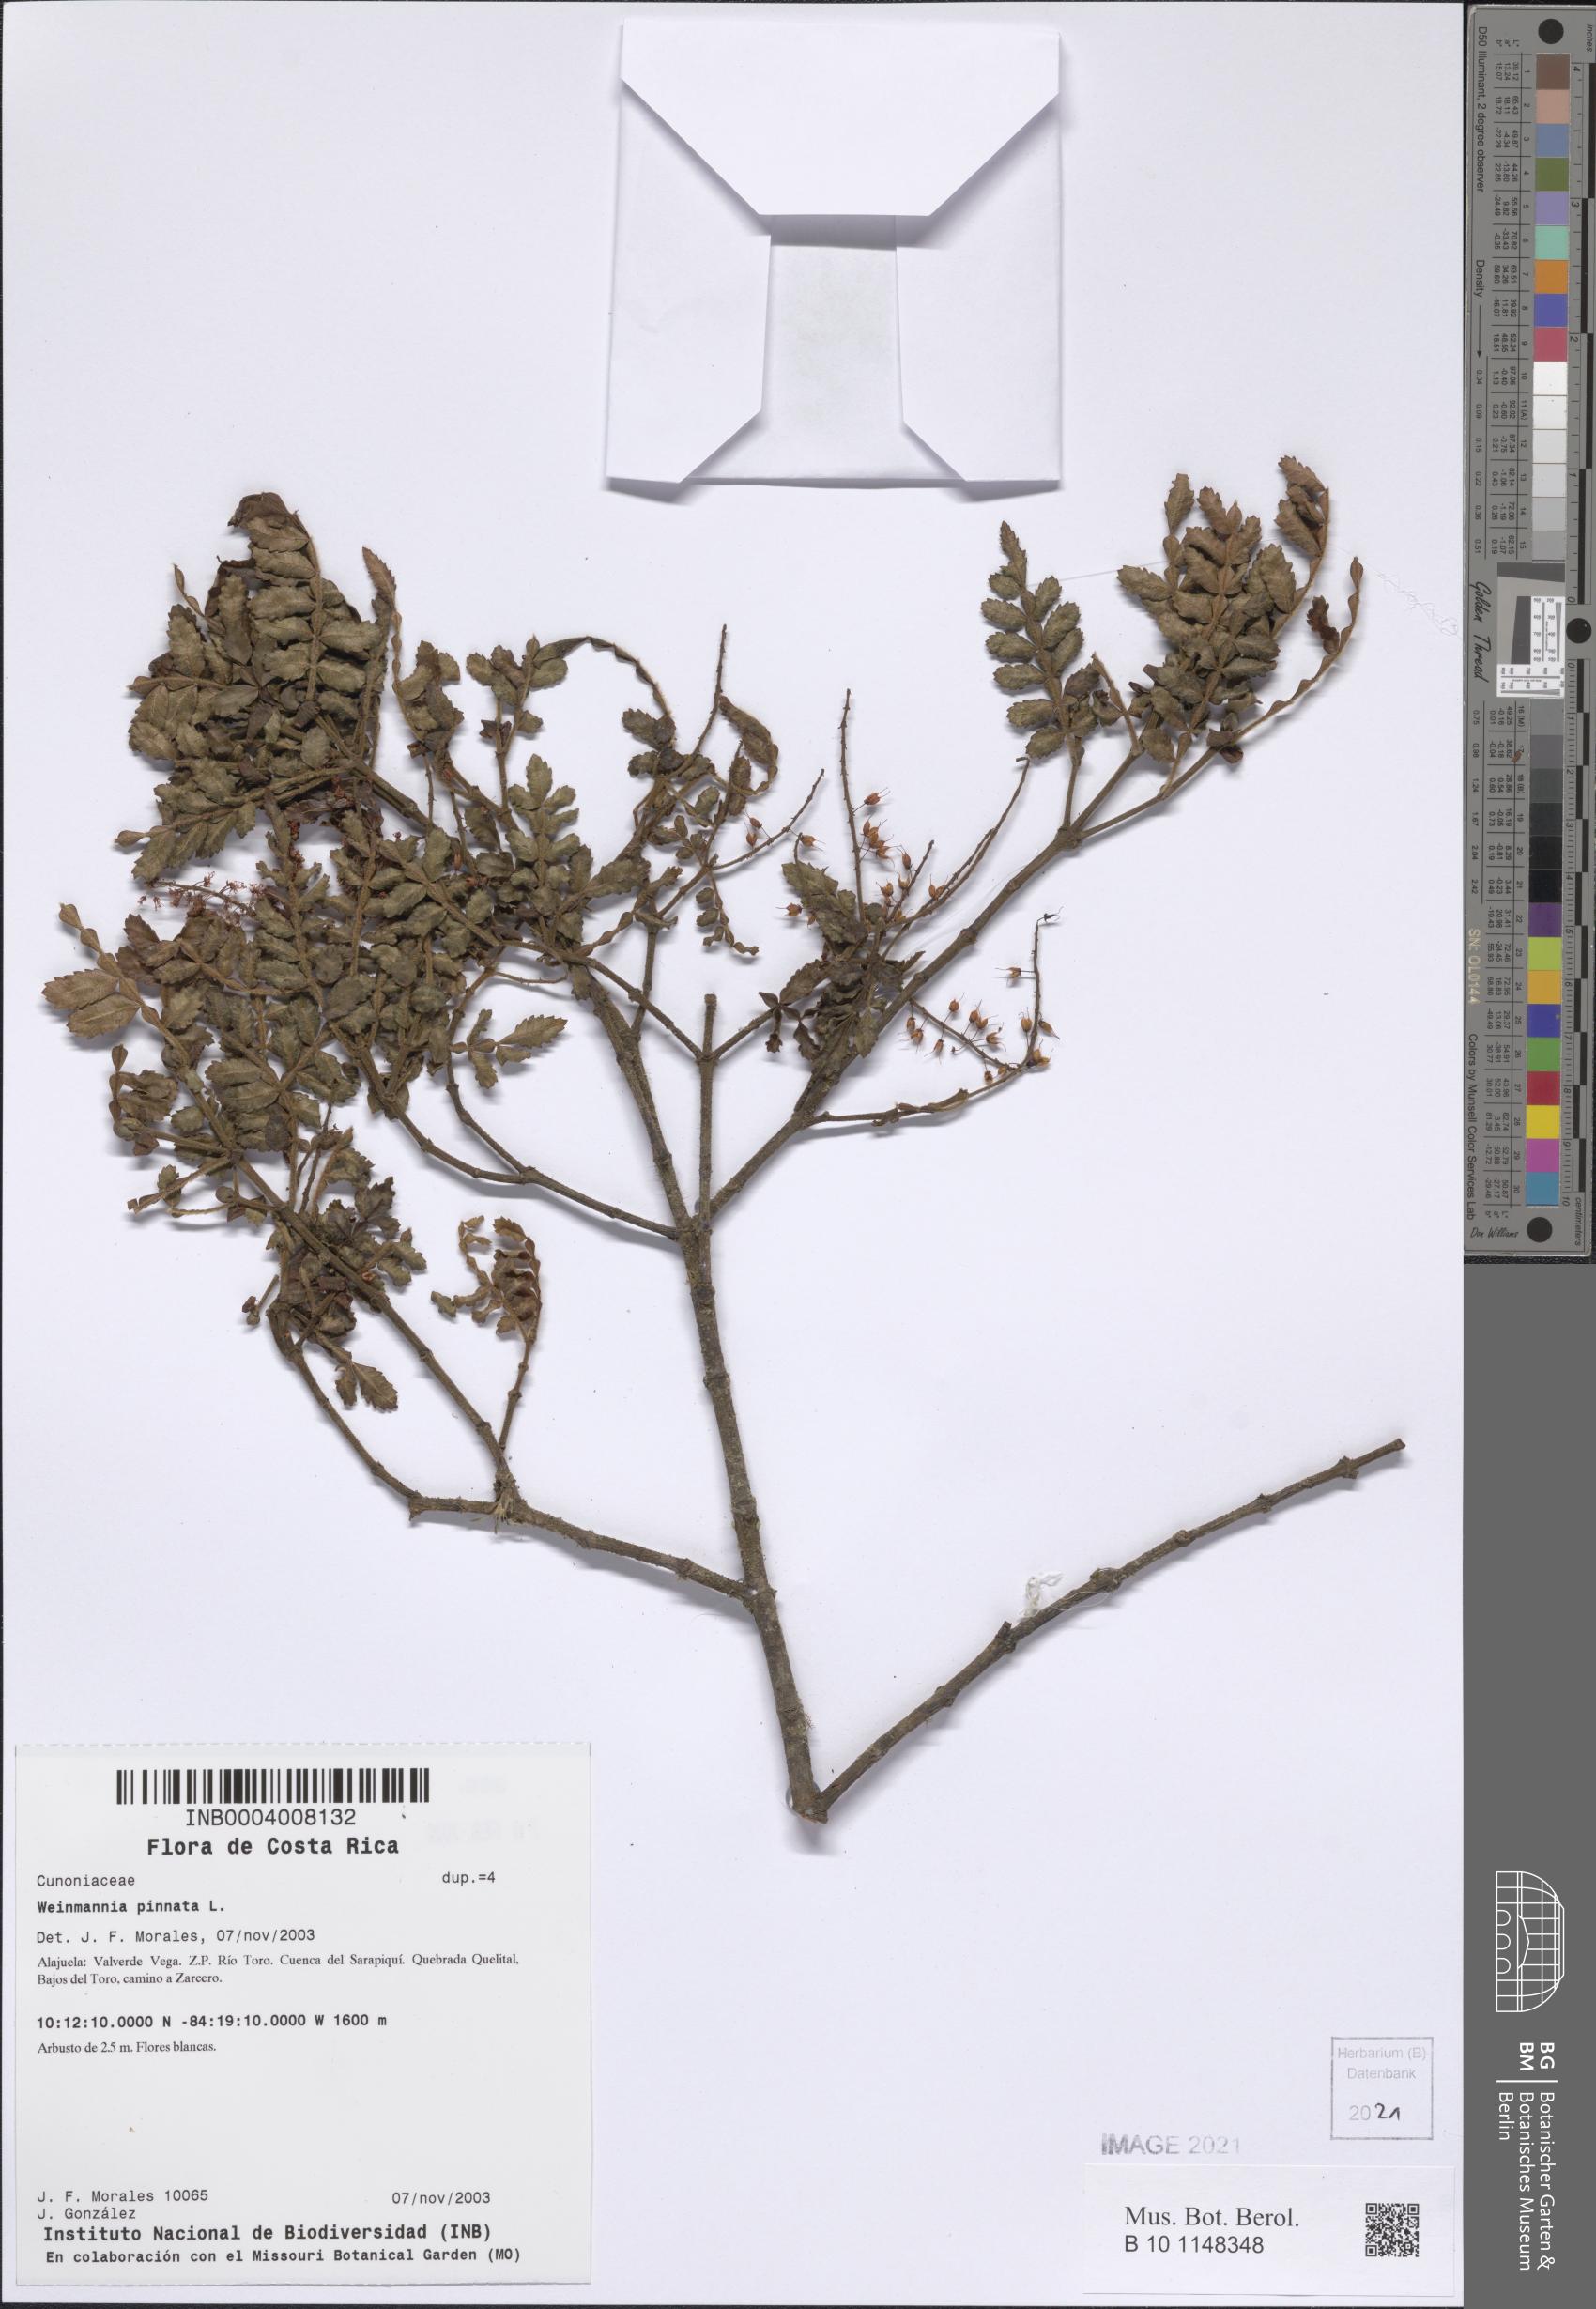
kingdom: Plantae
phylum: Tracheophyta
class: Magnoliopsida
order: Oxalidales
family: Cunoniaceae
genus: Weinmannia
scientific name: Weinmannia pinnata
